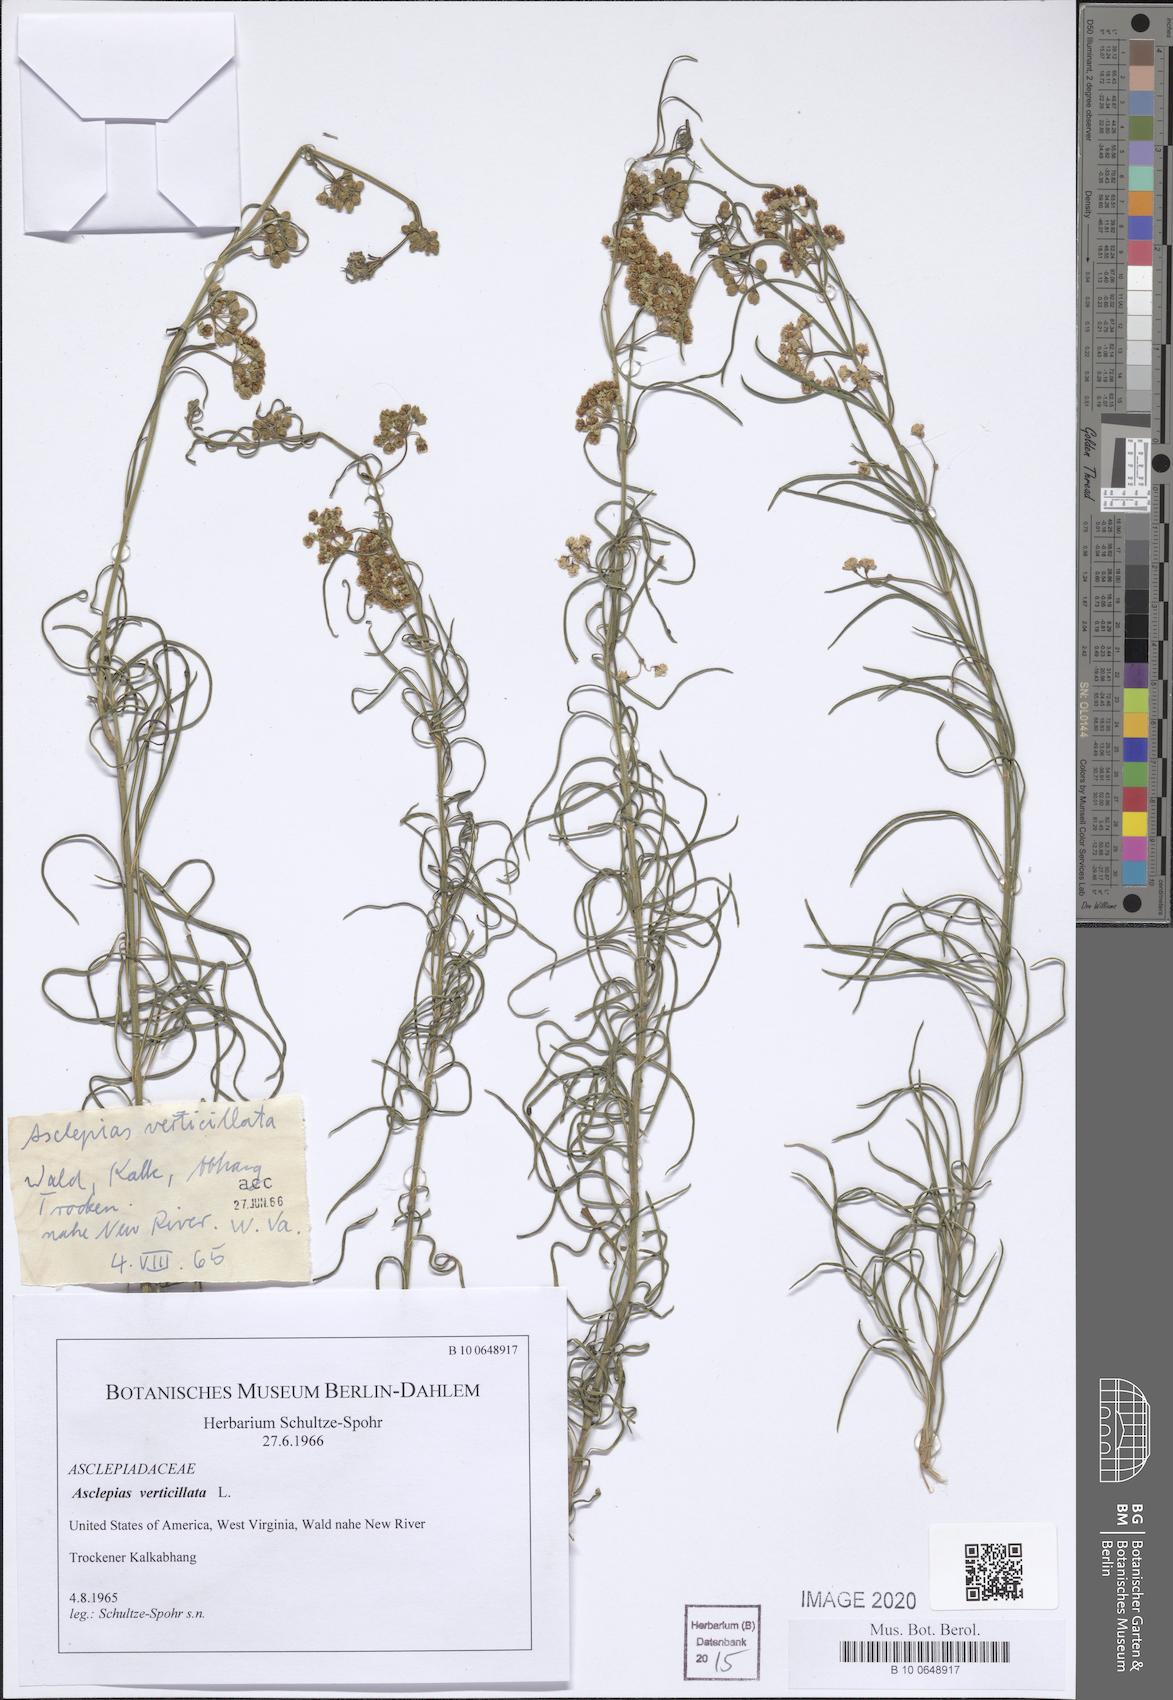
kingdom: Plantae
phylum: Tracheophyta
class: Magnoliopsida
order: Gentianales
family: Apocynaceae
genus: Asclepias
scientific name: Asclepias verticillata
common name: Eastern whorled milkweed
